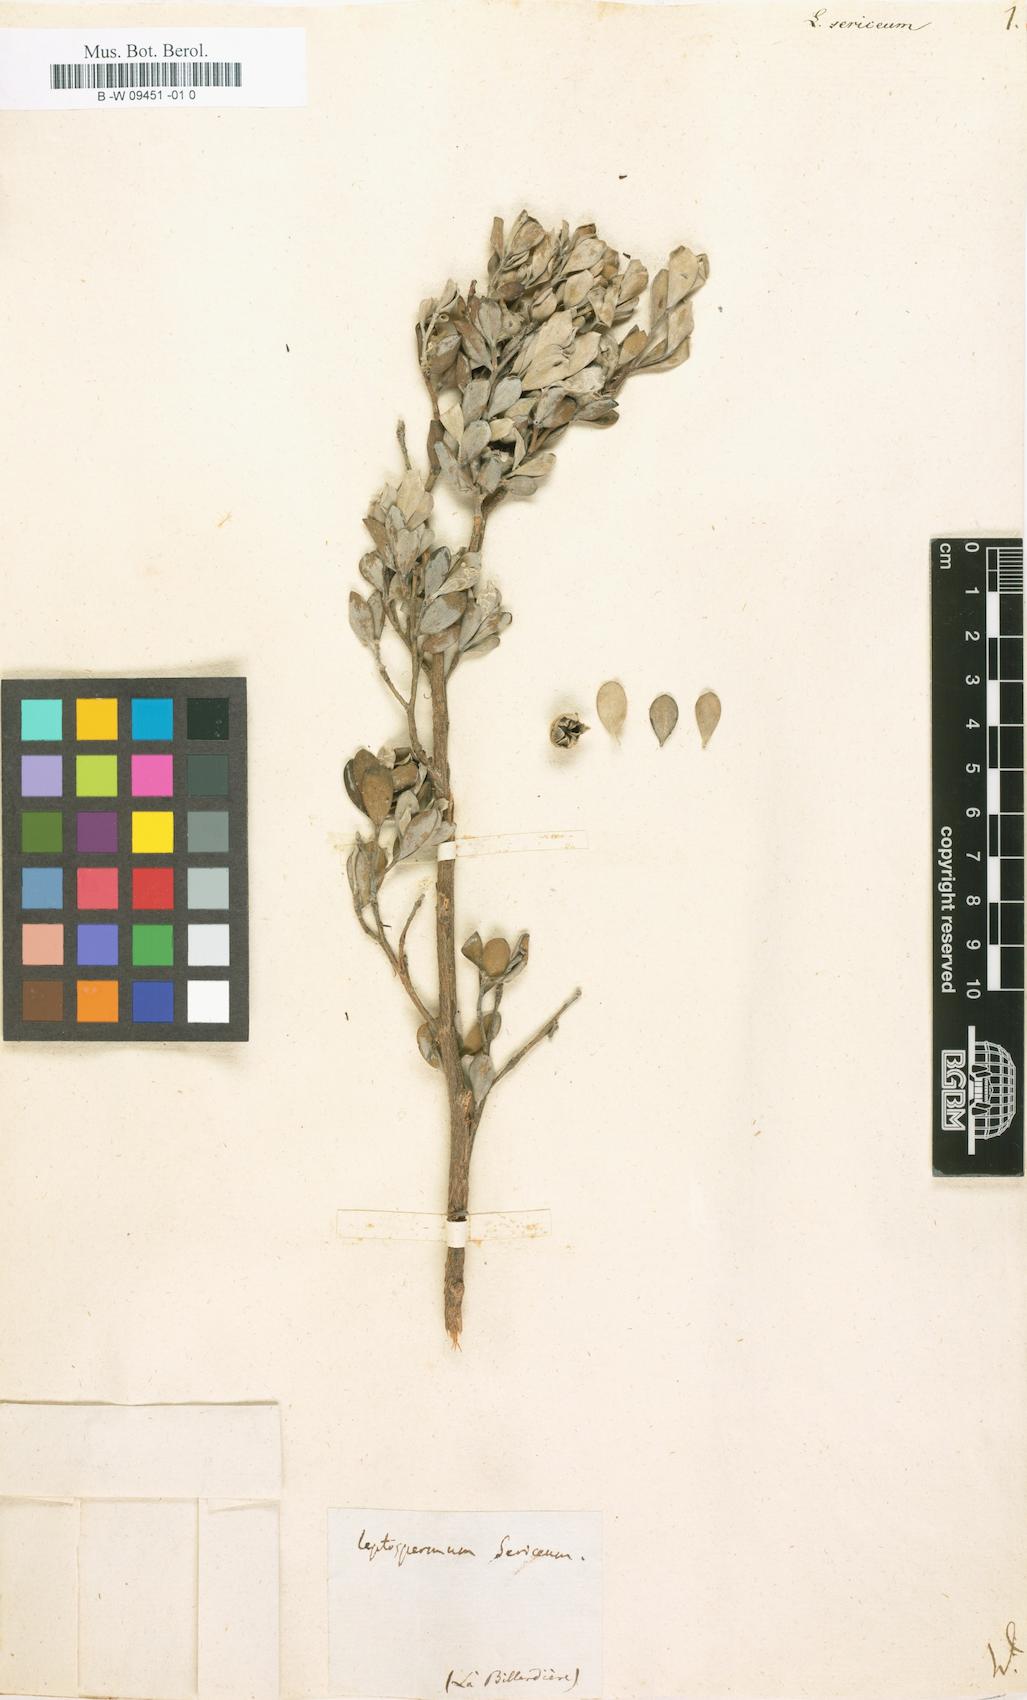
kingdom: Plantae
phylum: Tracheophyta
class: Magnoliopsida
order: Myrtales
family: Myrtaceae
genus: Leptospermum
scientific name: Leptospermum sericeum
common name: Swamp teatree
